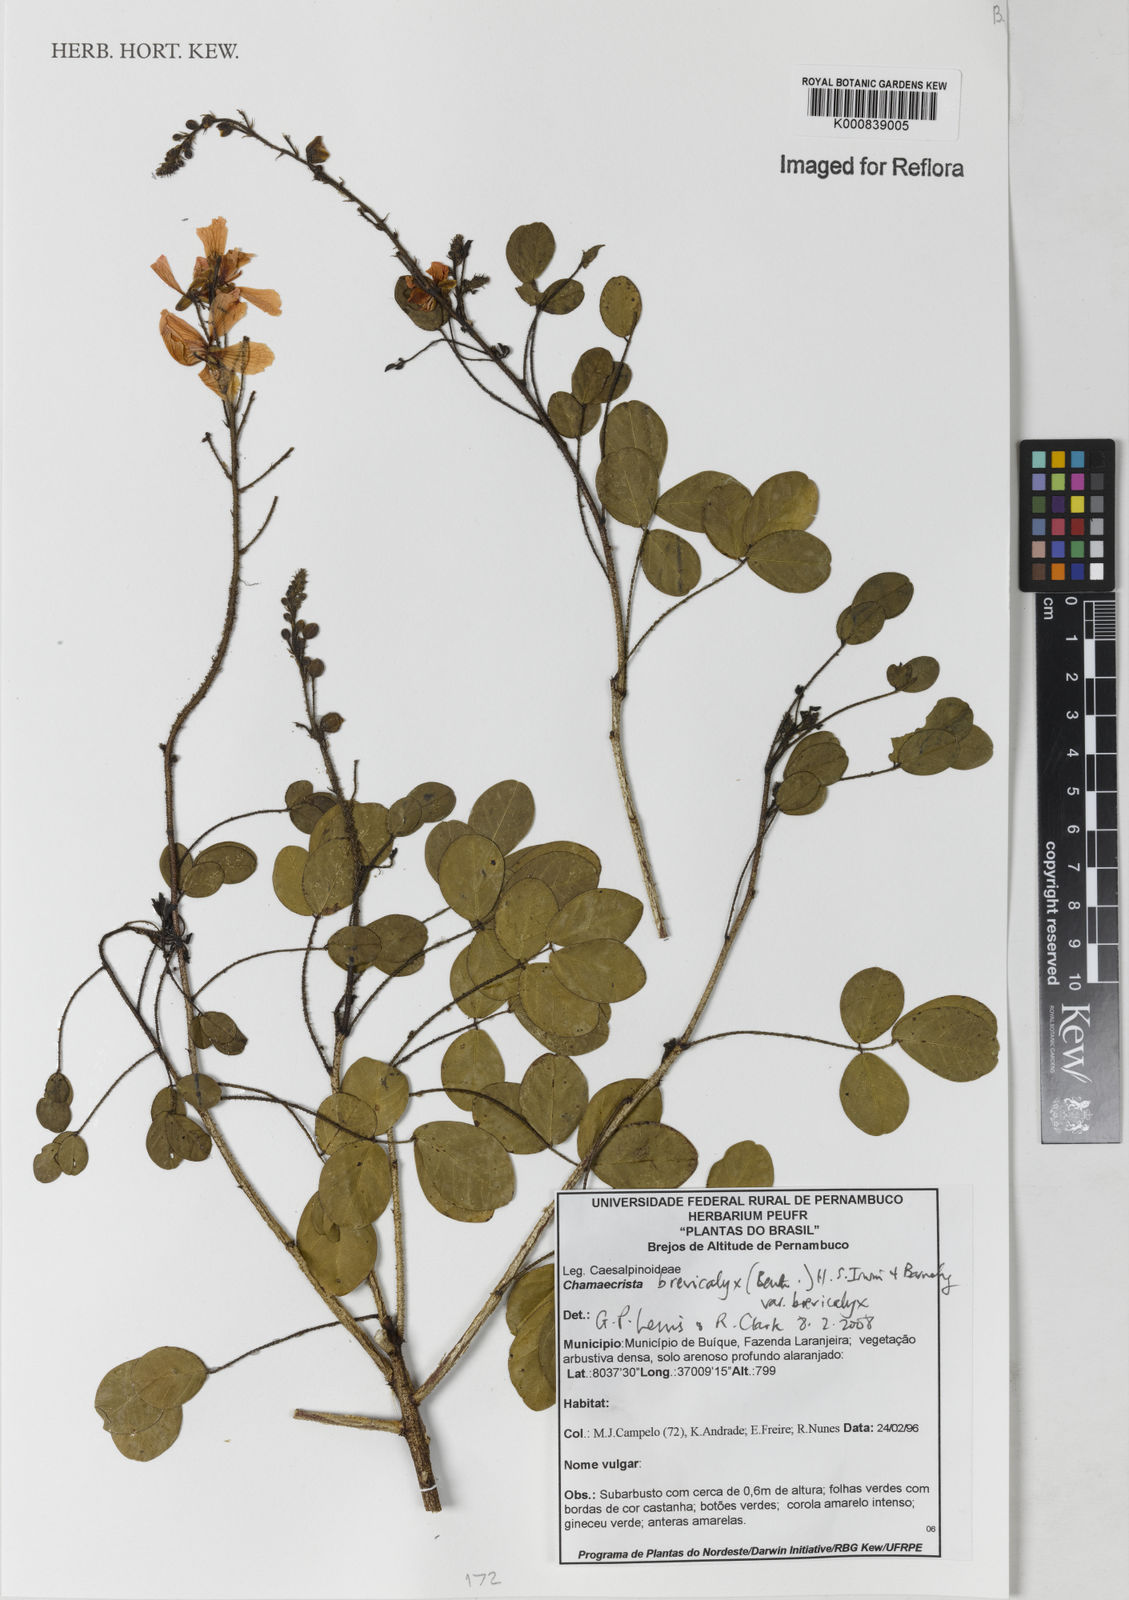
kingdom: Plantae
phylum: Tracheophyta
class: Magnoliopsida
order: Fabales
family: Fabaceae
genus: Chamaecrista
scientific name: Chamaecrista brevicalyx
